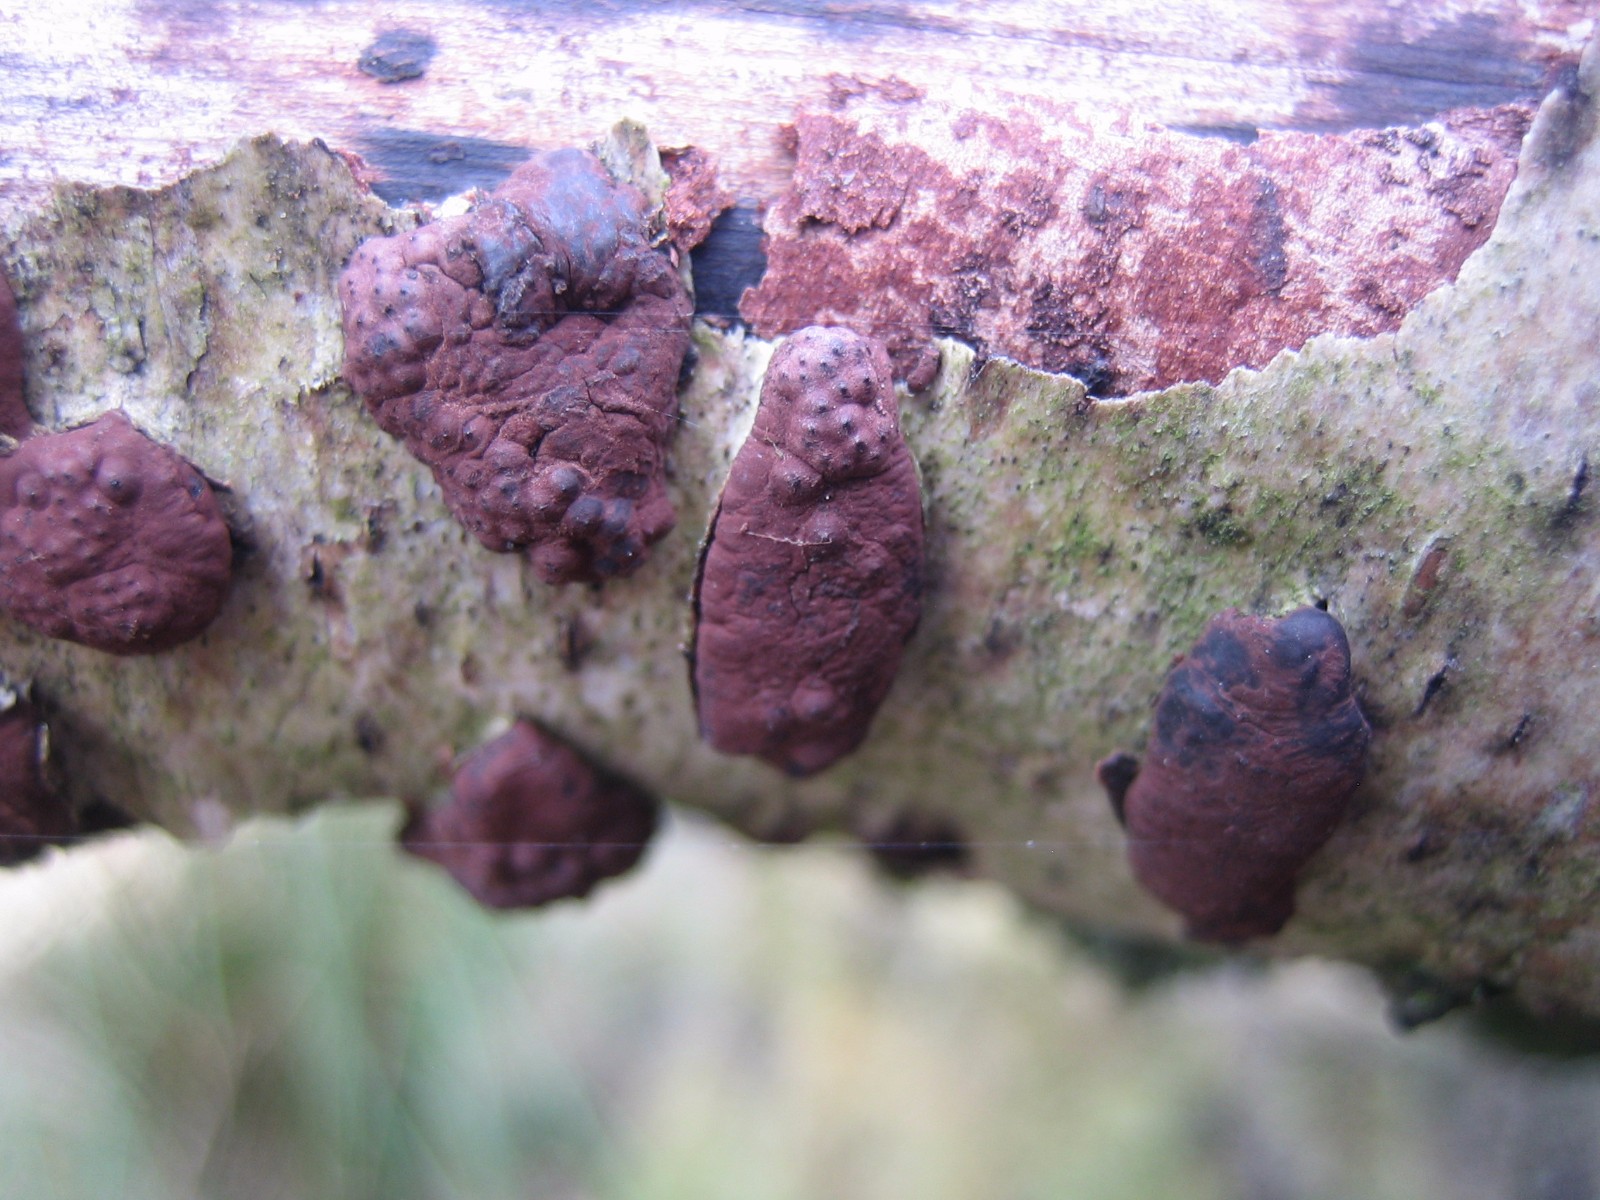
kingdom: Fungi
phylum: Ascomycota
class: Sordariomycetes
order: Xylariales
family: Hypoxylaceae
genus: Jackrogersella
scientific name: Jackrogersella multiformis
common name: foranderlig kulbær
